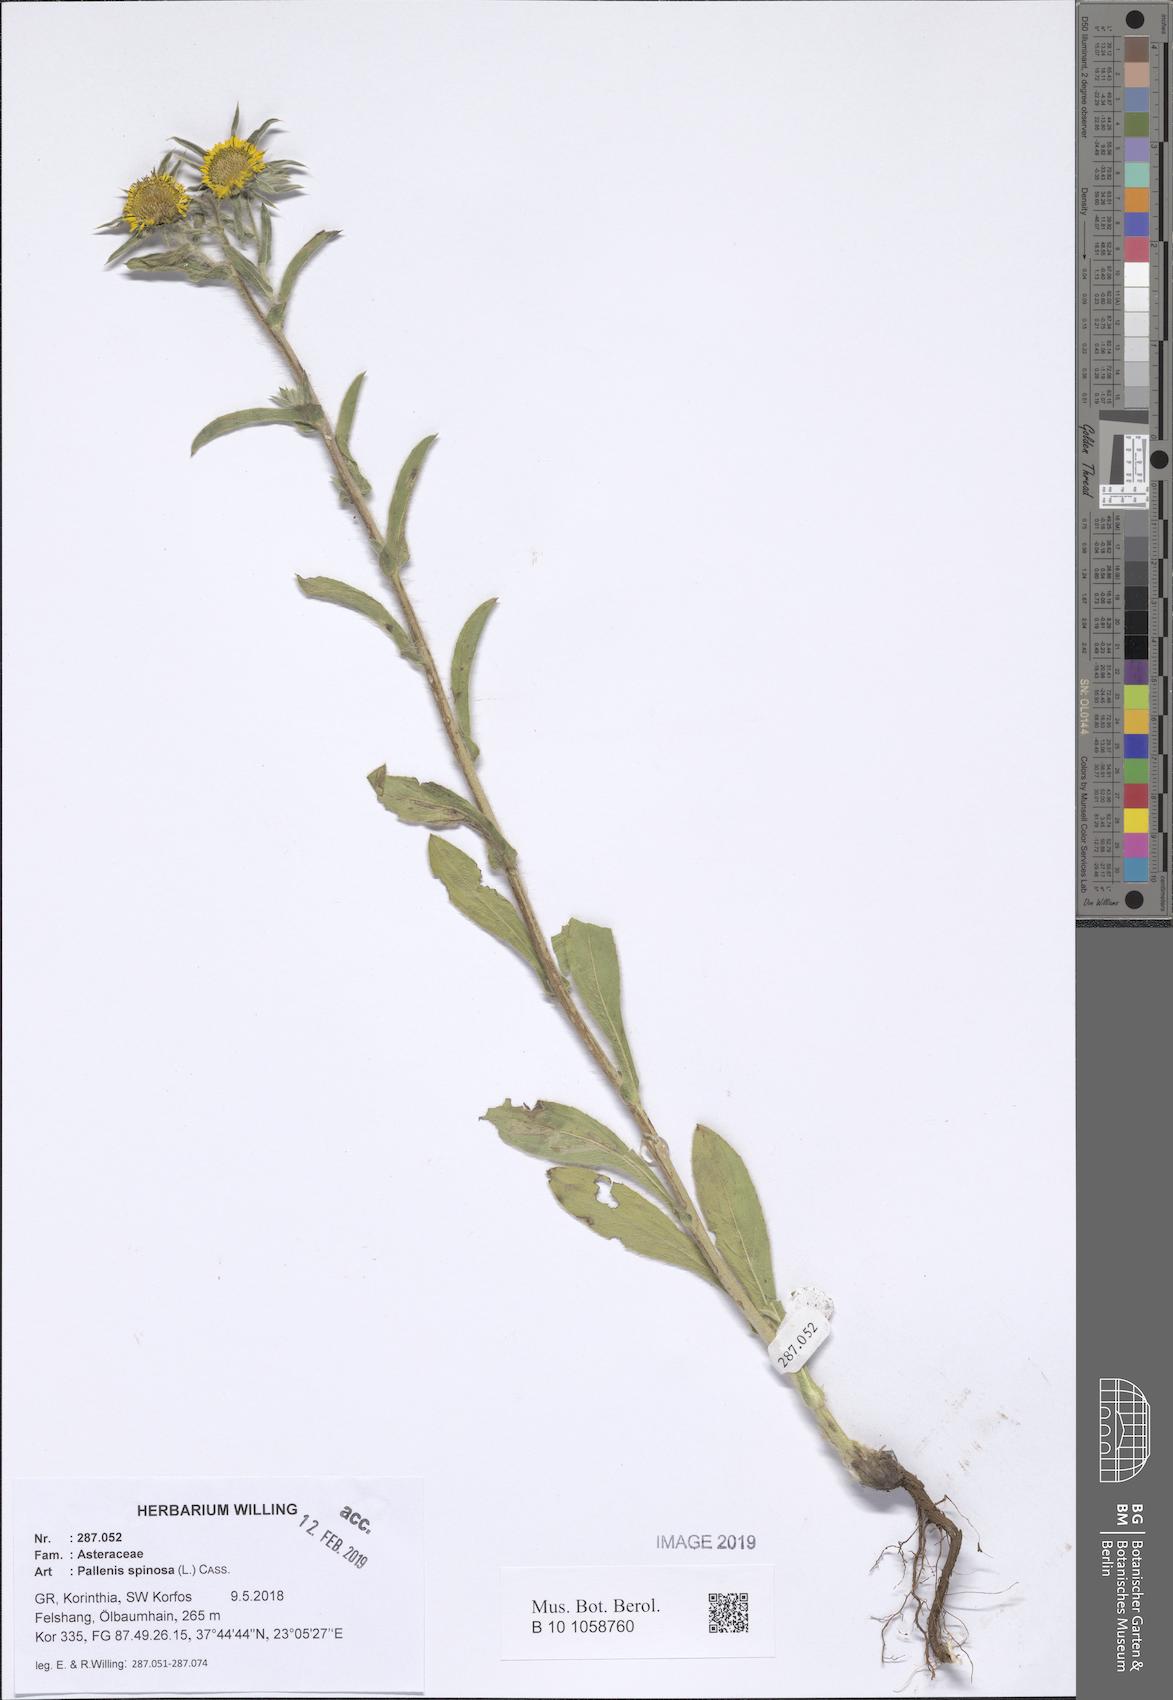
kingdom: Plantae
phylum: Tracheophyta
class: Magnoliopsida
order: Asterales
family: Asteraceae
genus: Pallenis
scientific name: Pallenis spinosa
